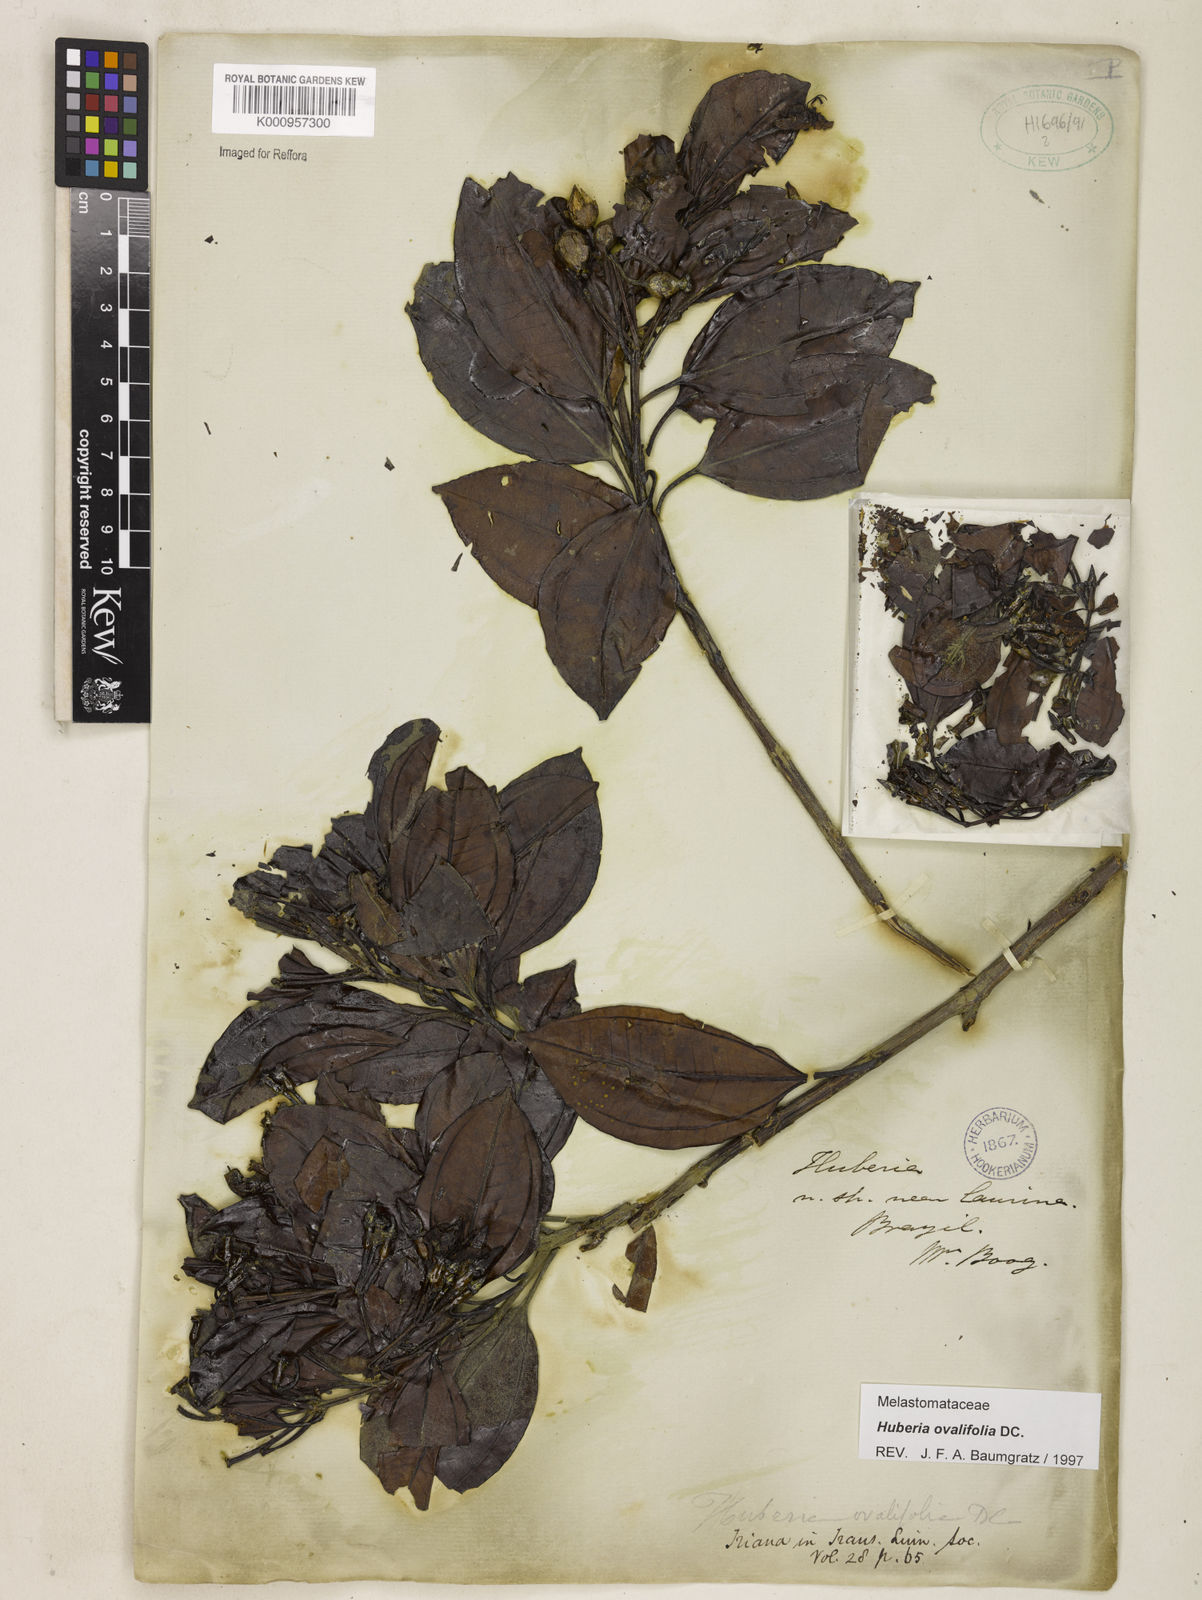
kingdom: Plantae
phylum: Tracheophyta
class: Magnoliopsida
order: Myrtales
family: Melastomataceae
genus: Huberia
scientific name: Huberia ovalifolia
